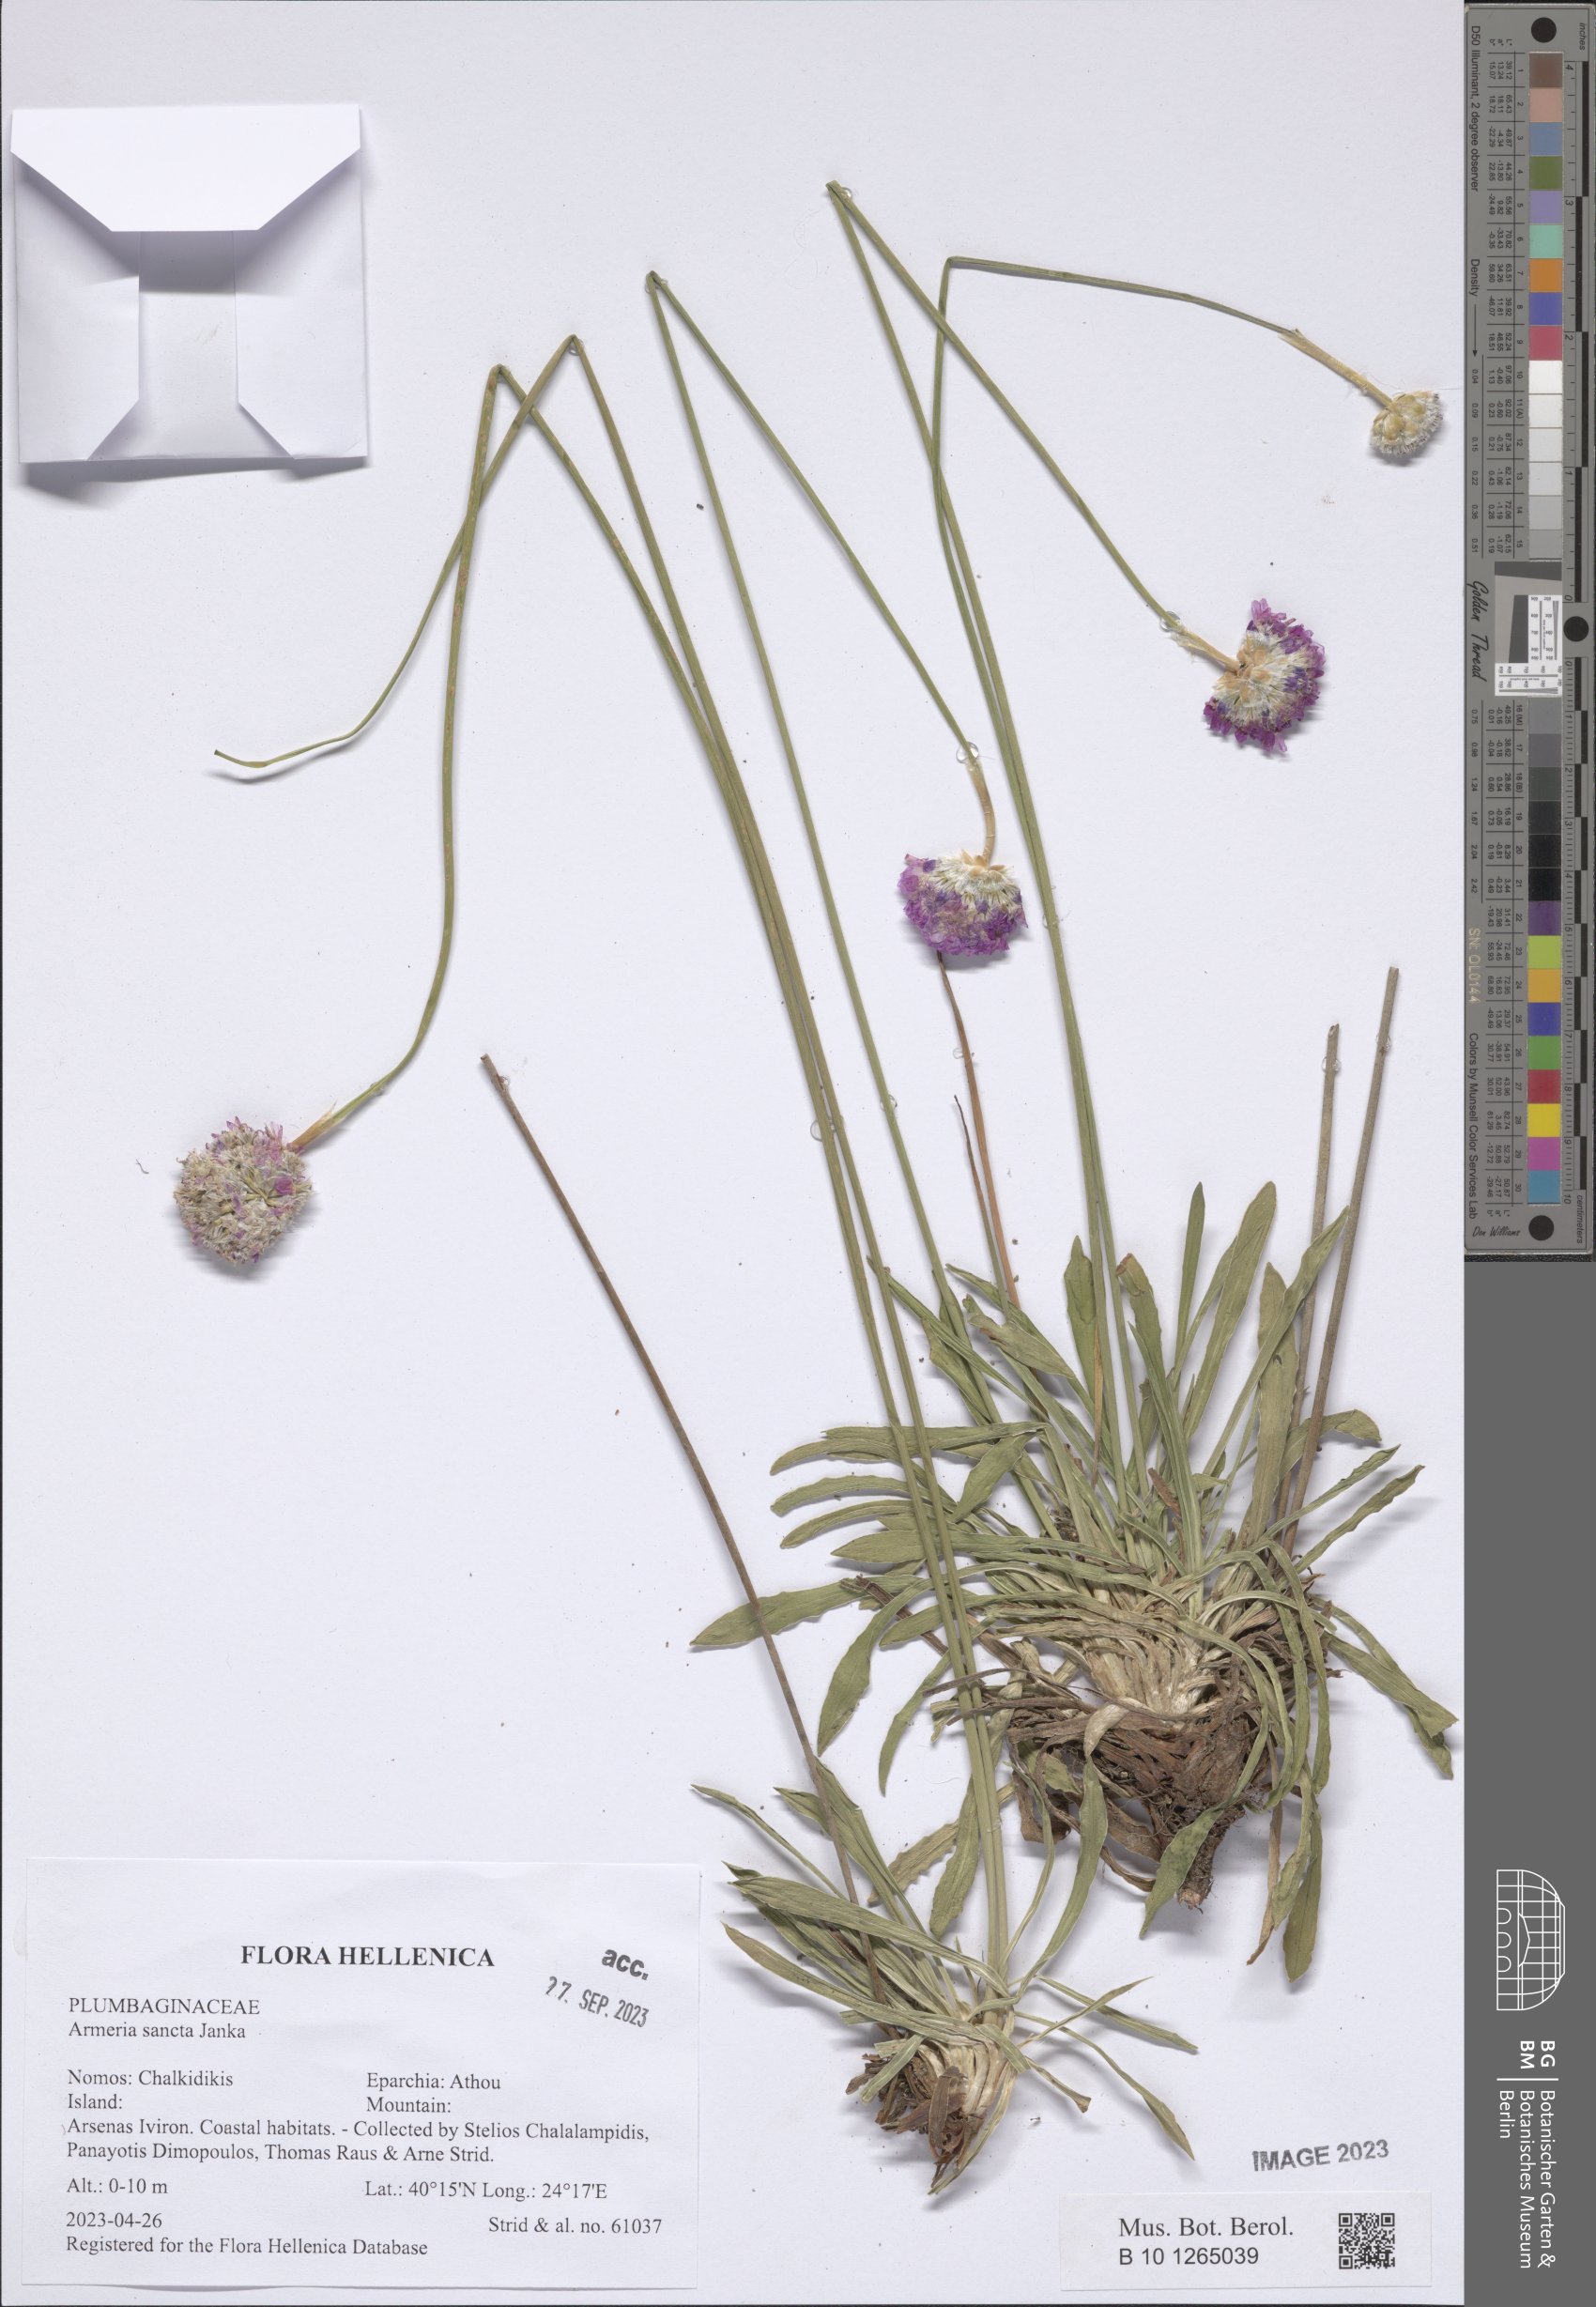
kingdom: Plantae
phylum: Tracheophyta
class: Magnoliopsida
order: Caryophyllales
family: Plumbaginaceae
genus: Armeria
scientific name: Armeria sancta
